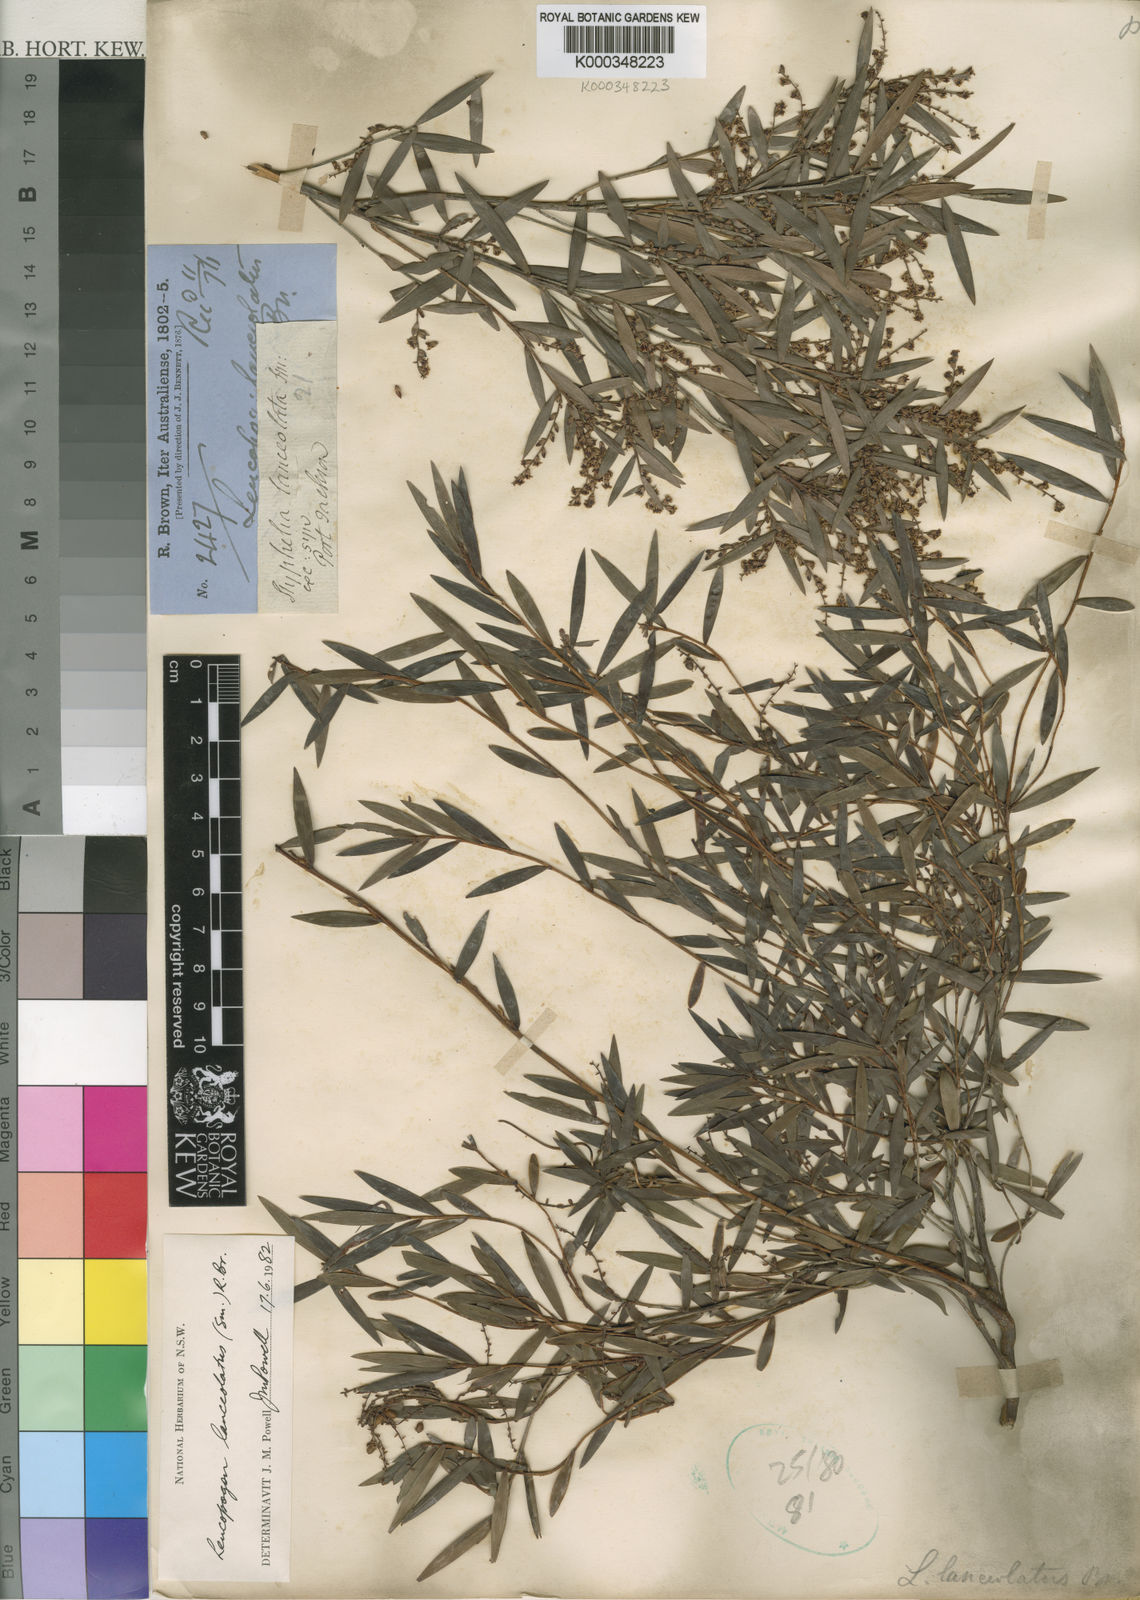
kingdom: Plantae
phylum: Tracheophyta
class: Magnoliopsida
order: Ericales
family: Ericaceae
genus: Leucopogon
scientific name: Leucopogon lanceolatus
